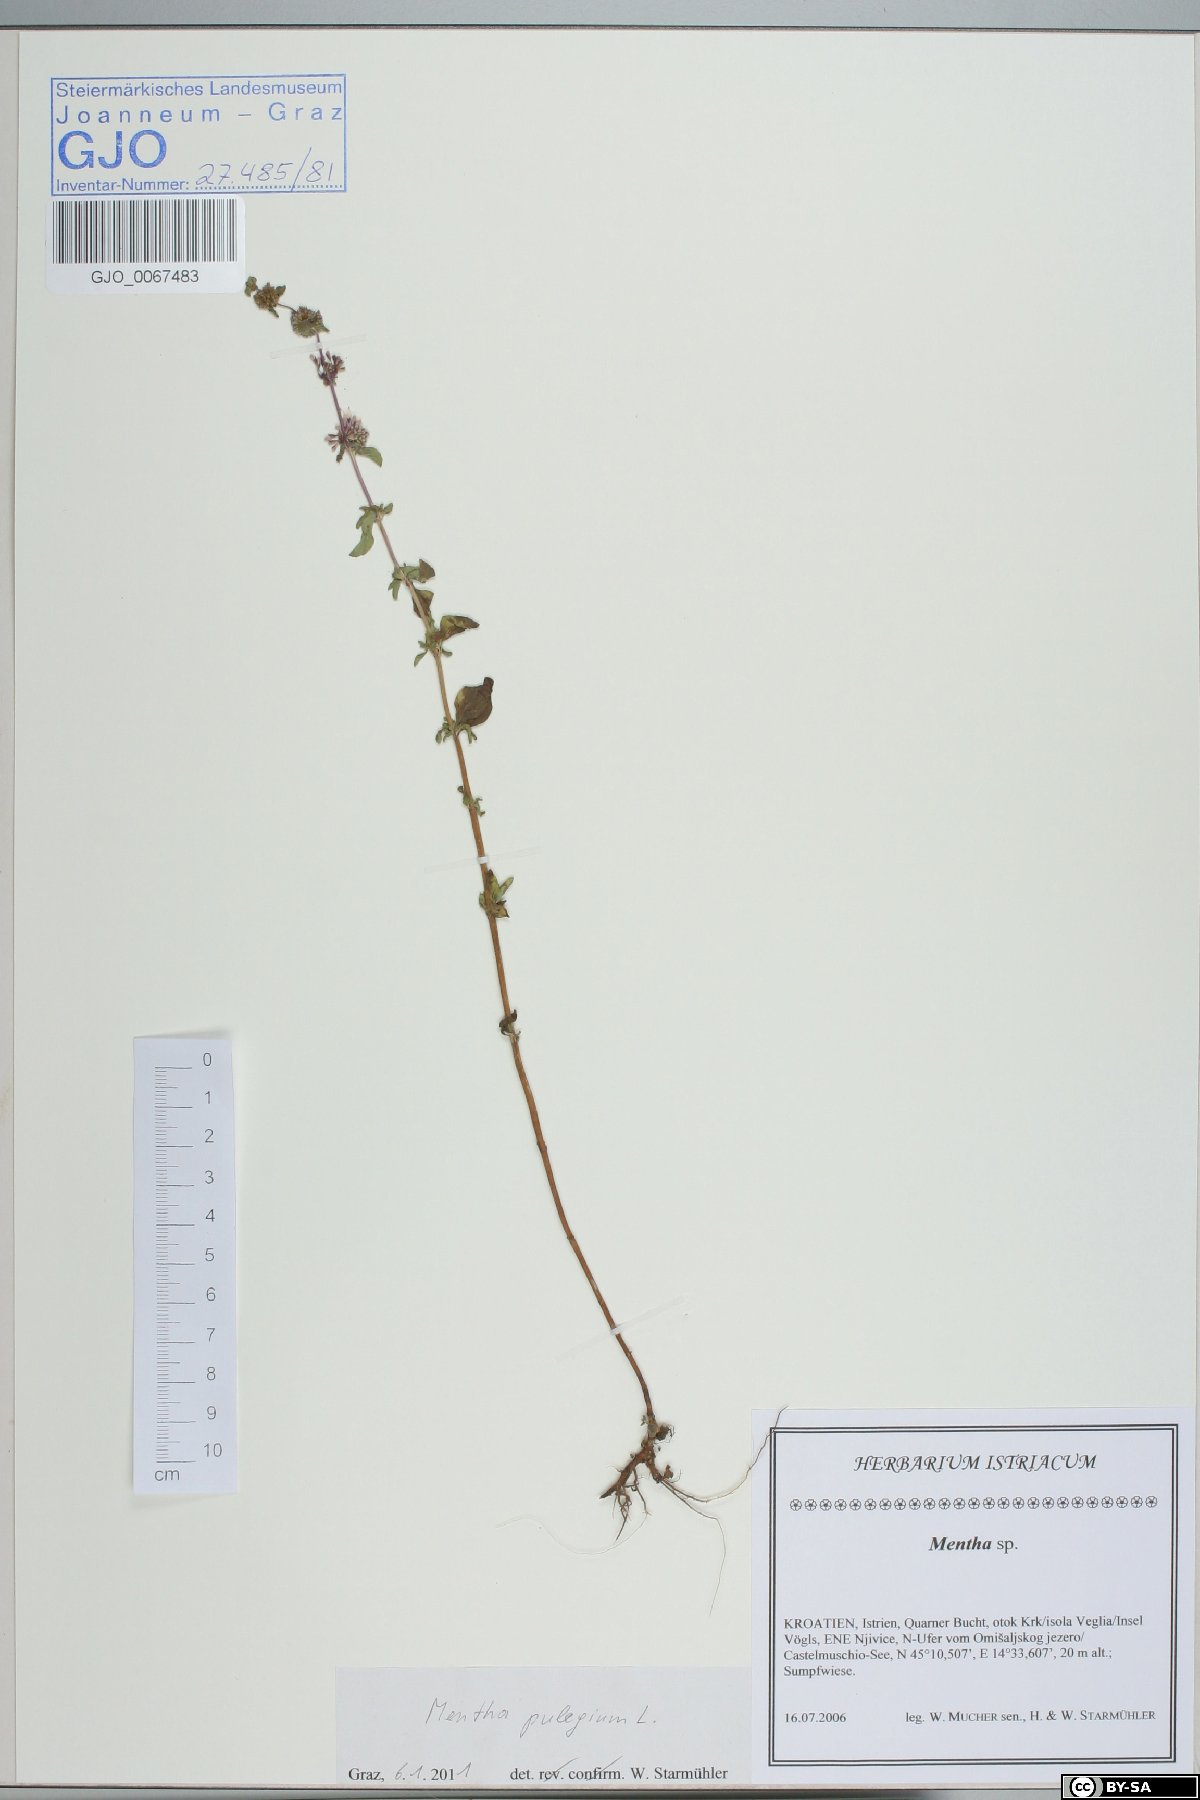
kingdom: Plantae
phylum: Tracheophyta
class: Magnoliopsida
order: Lamiales
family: Lamiaceae
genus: Mentha
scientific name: Mentha pulegium
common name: Pennyroyal
